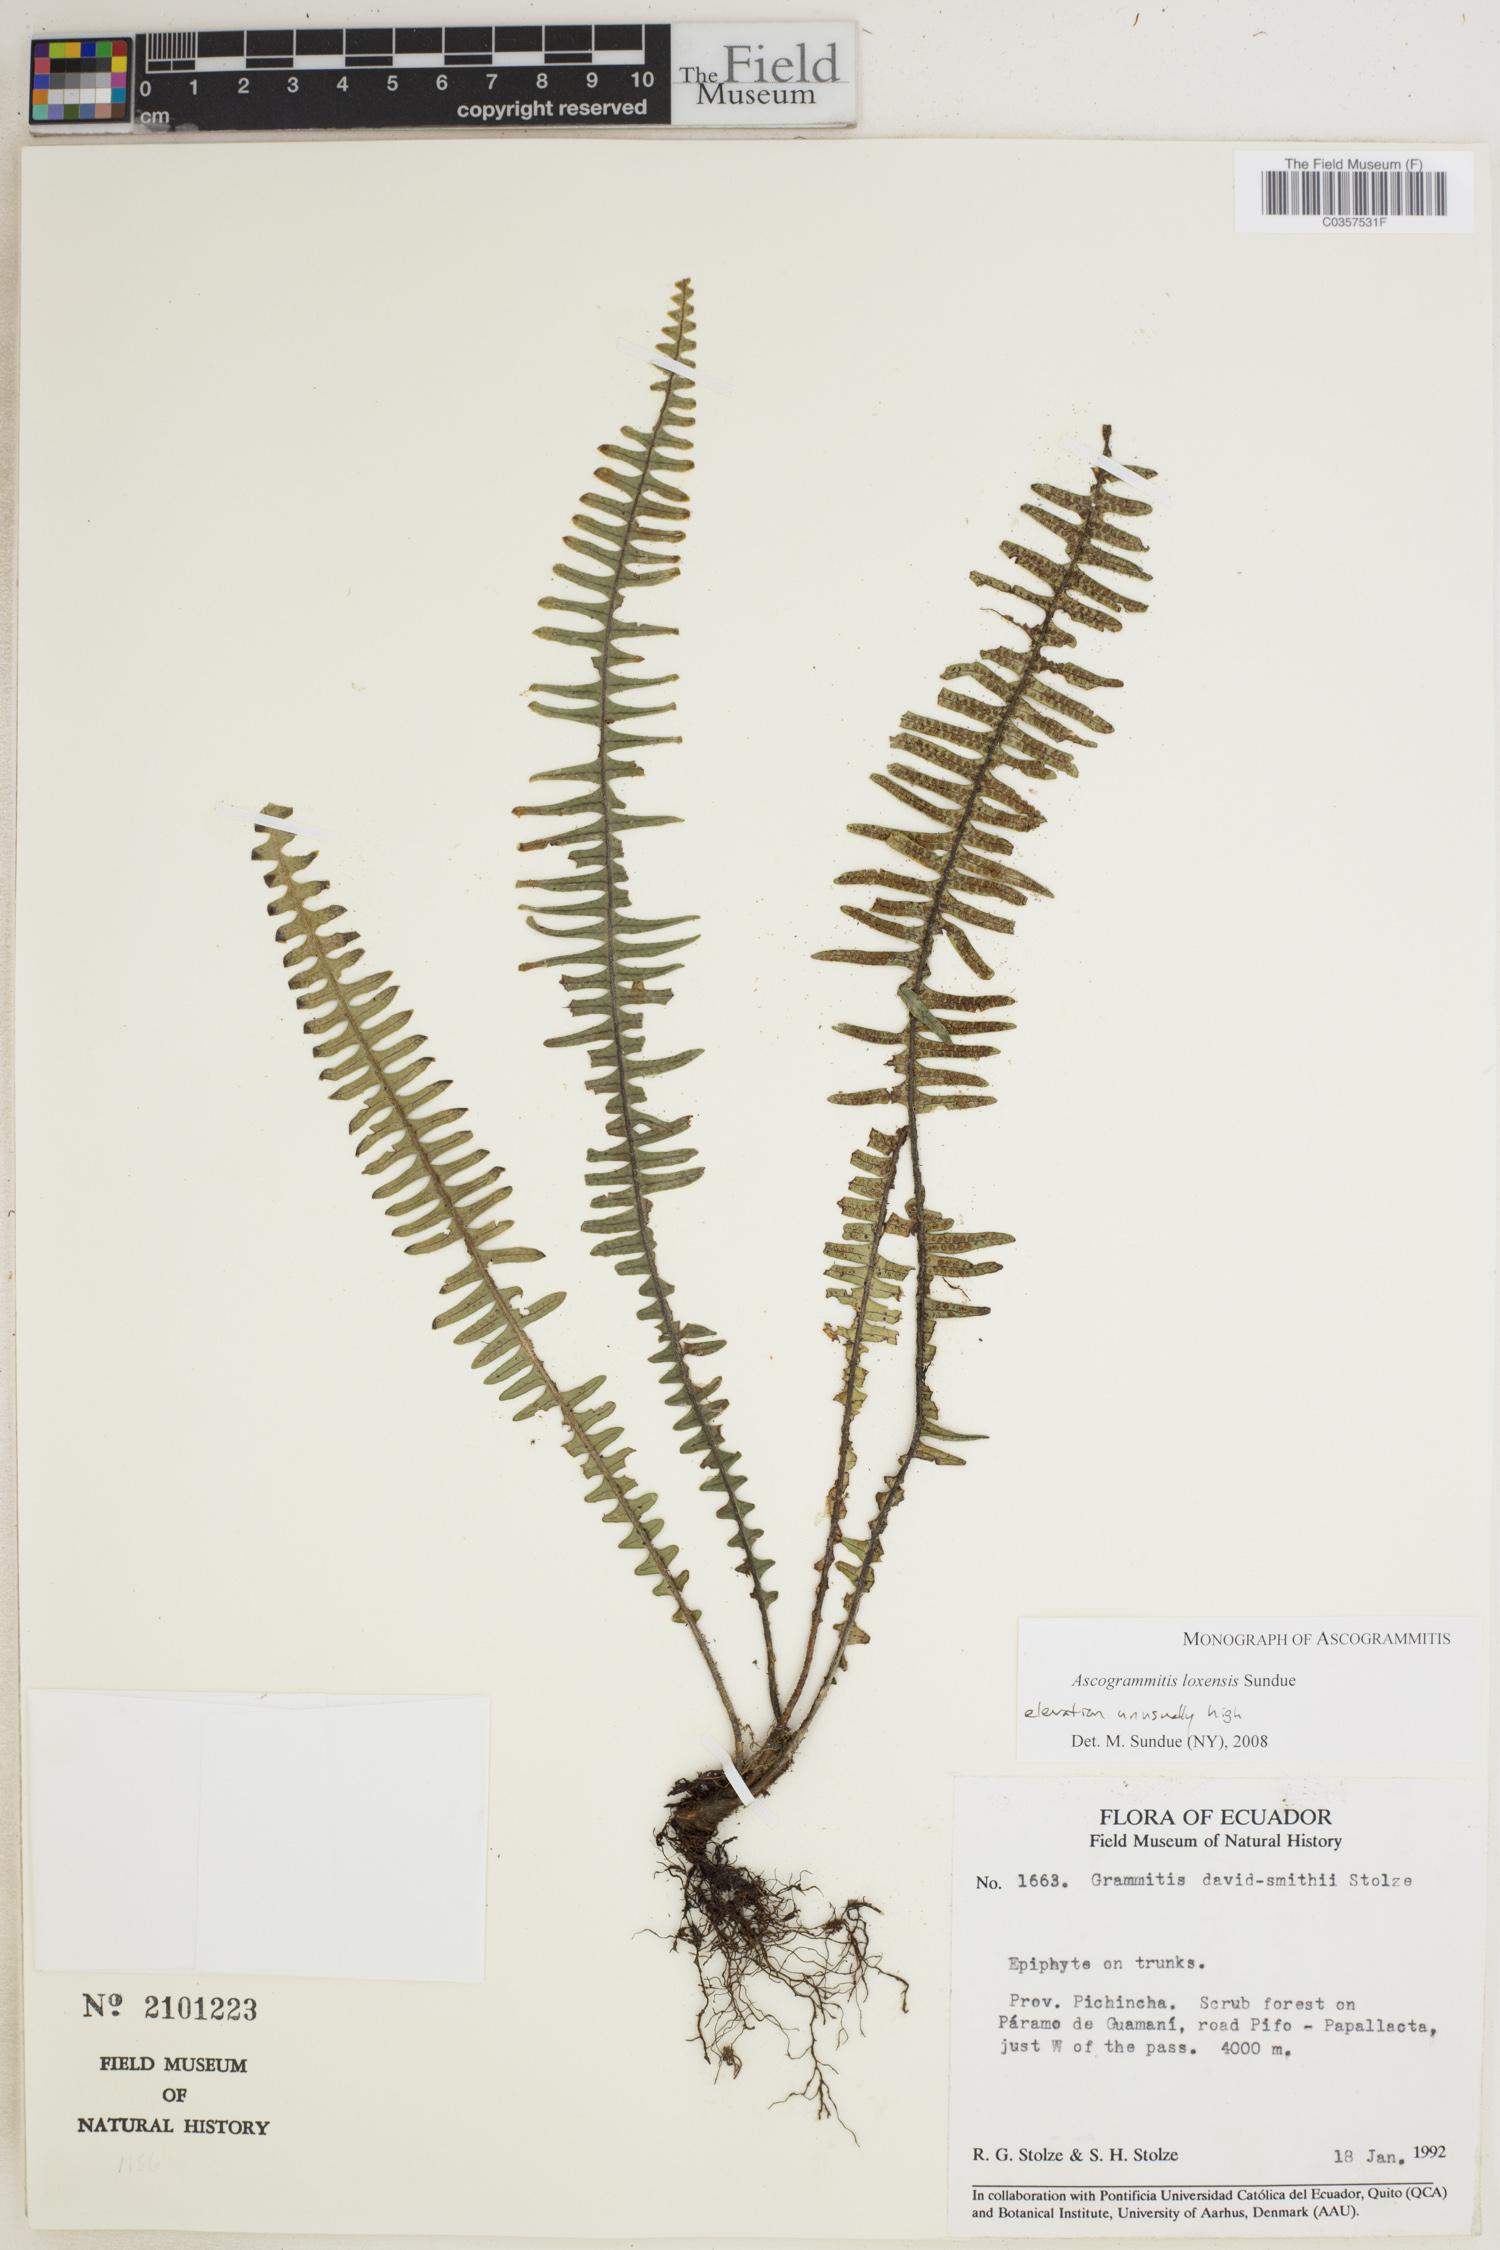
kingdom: Plantae
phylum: Tracheophyta
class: Polypodiopsida
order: Polypodiales
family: Polypodiaceae
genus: Ascogrammitis
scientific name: Ascogrammitis loxensis
